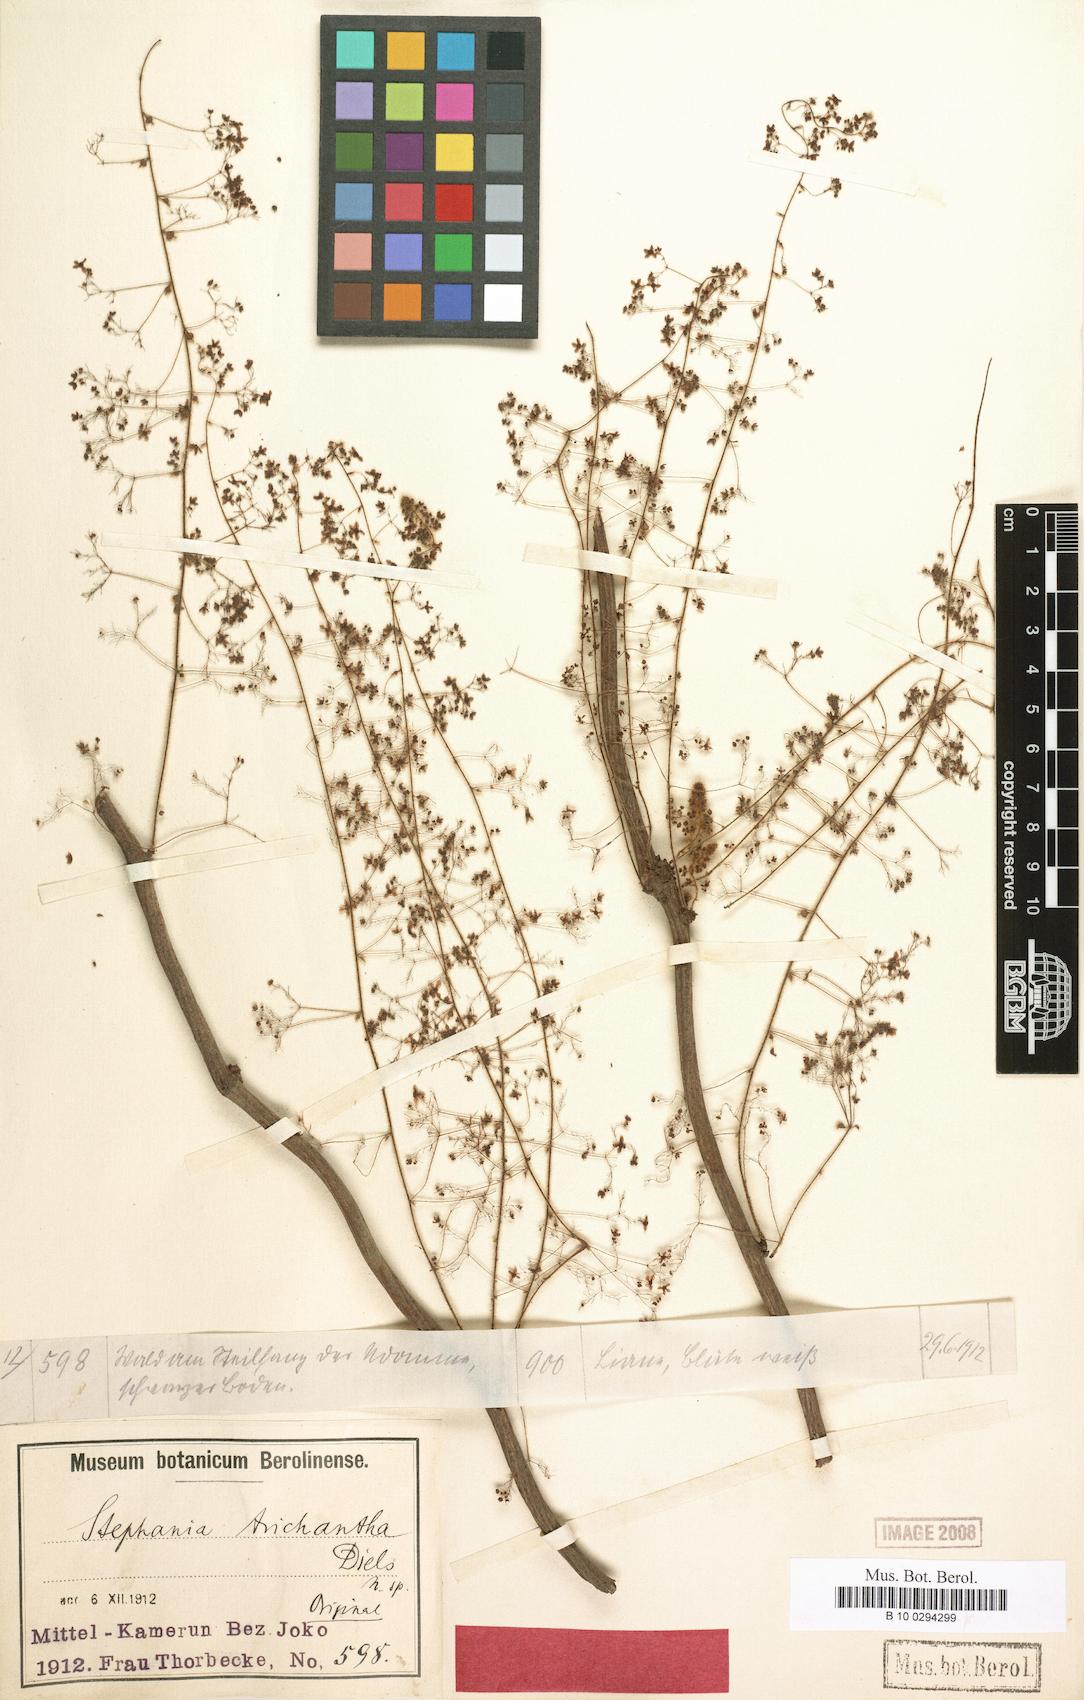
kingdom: Plantae
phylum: Tracheophyta
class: Magnoliopsida
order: Ranunculales
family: Menispermaceae
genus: Stephania
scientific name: Stephania
